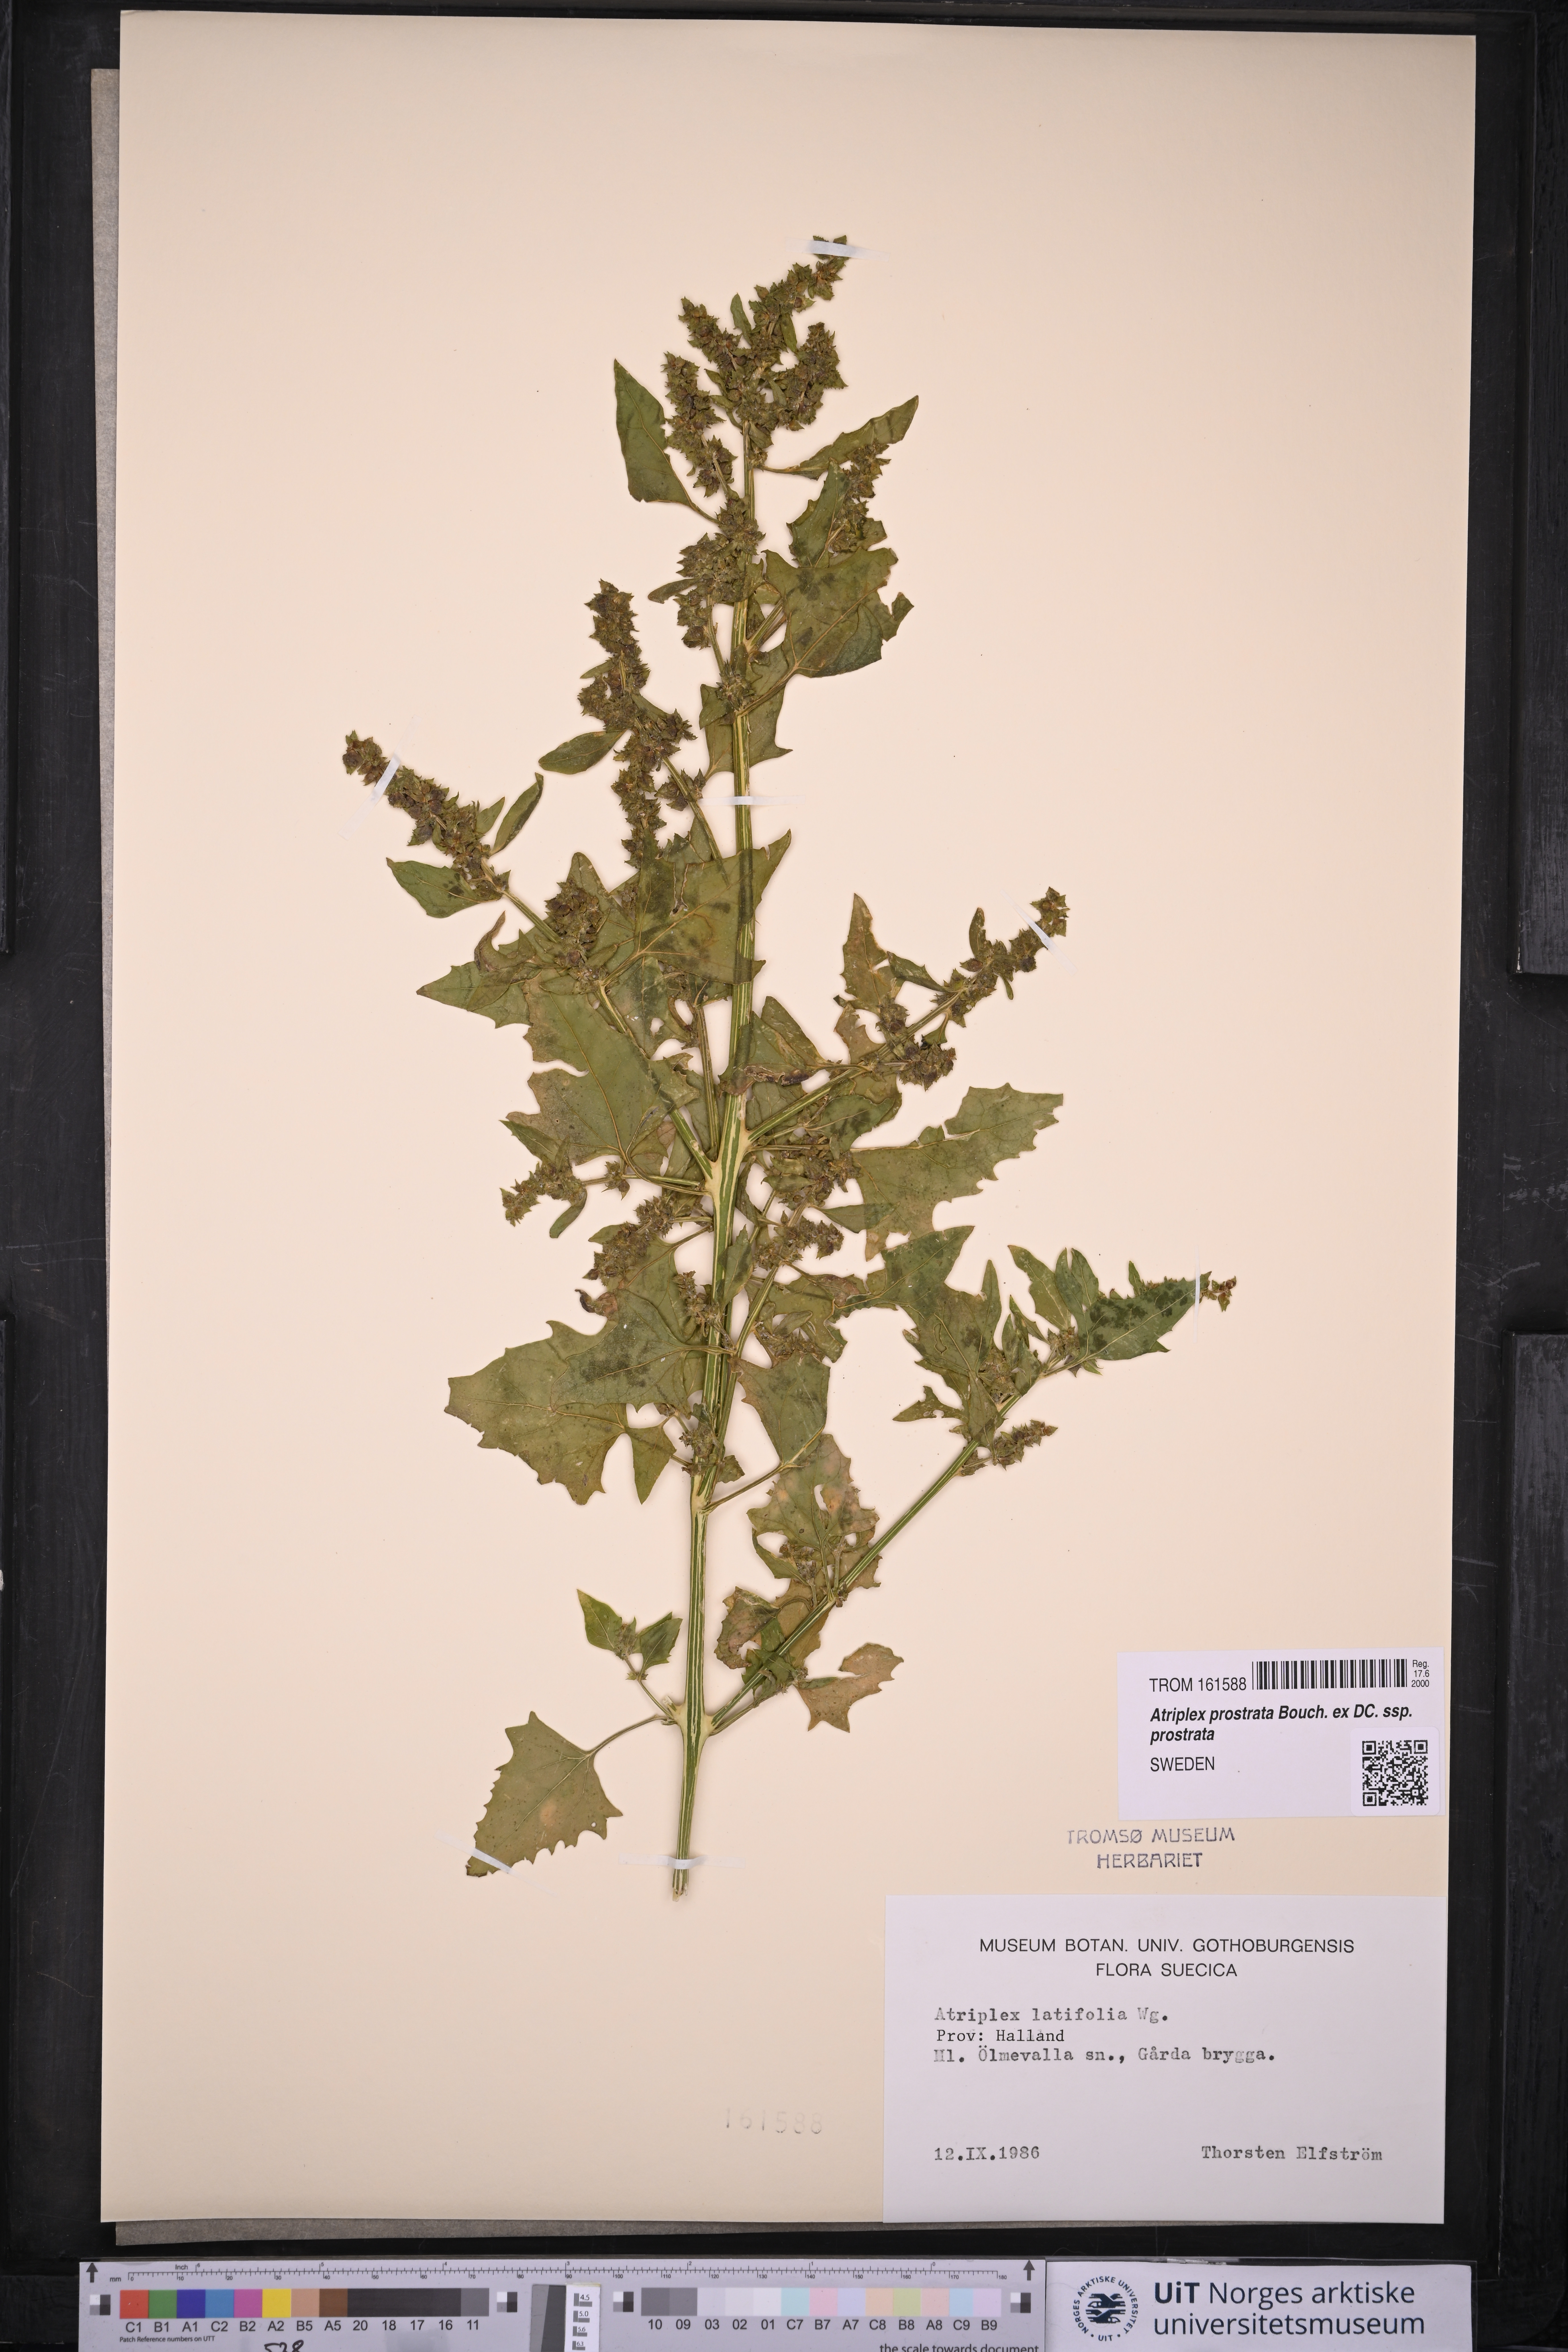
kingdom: Plantae
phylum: Tracheophyta
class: Magnoliopsida
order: Caryophyllales
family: Amaranthaceae
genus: Atriplex
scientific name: Atriplex prostrata
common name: Spear-leaved orache
